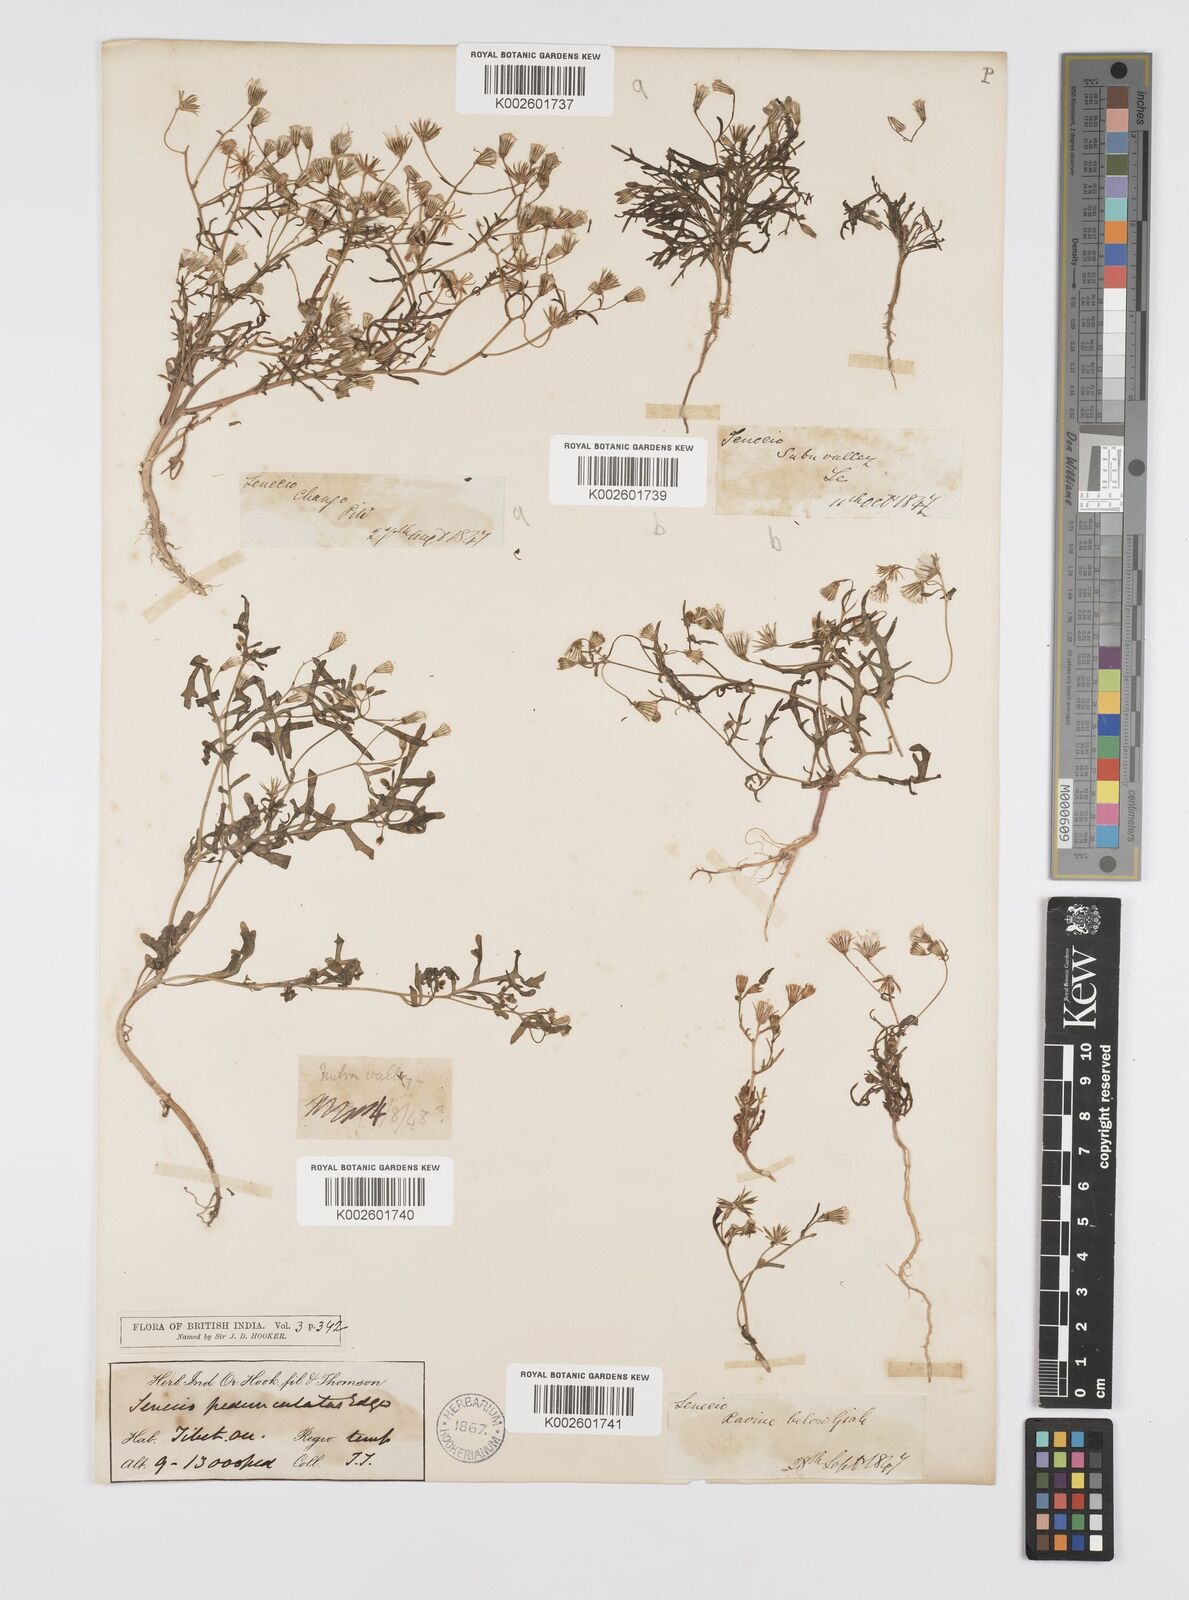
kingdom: Plantae
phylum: Tracheophyta
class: Magnoliopsida
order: Asterales
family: Asteraceae
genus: Senecio
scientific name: Senecio krascheninnikovii
